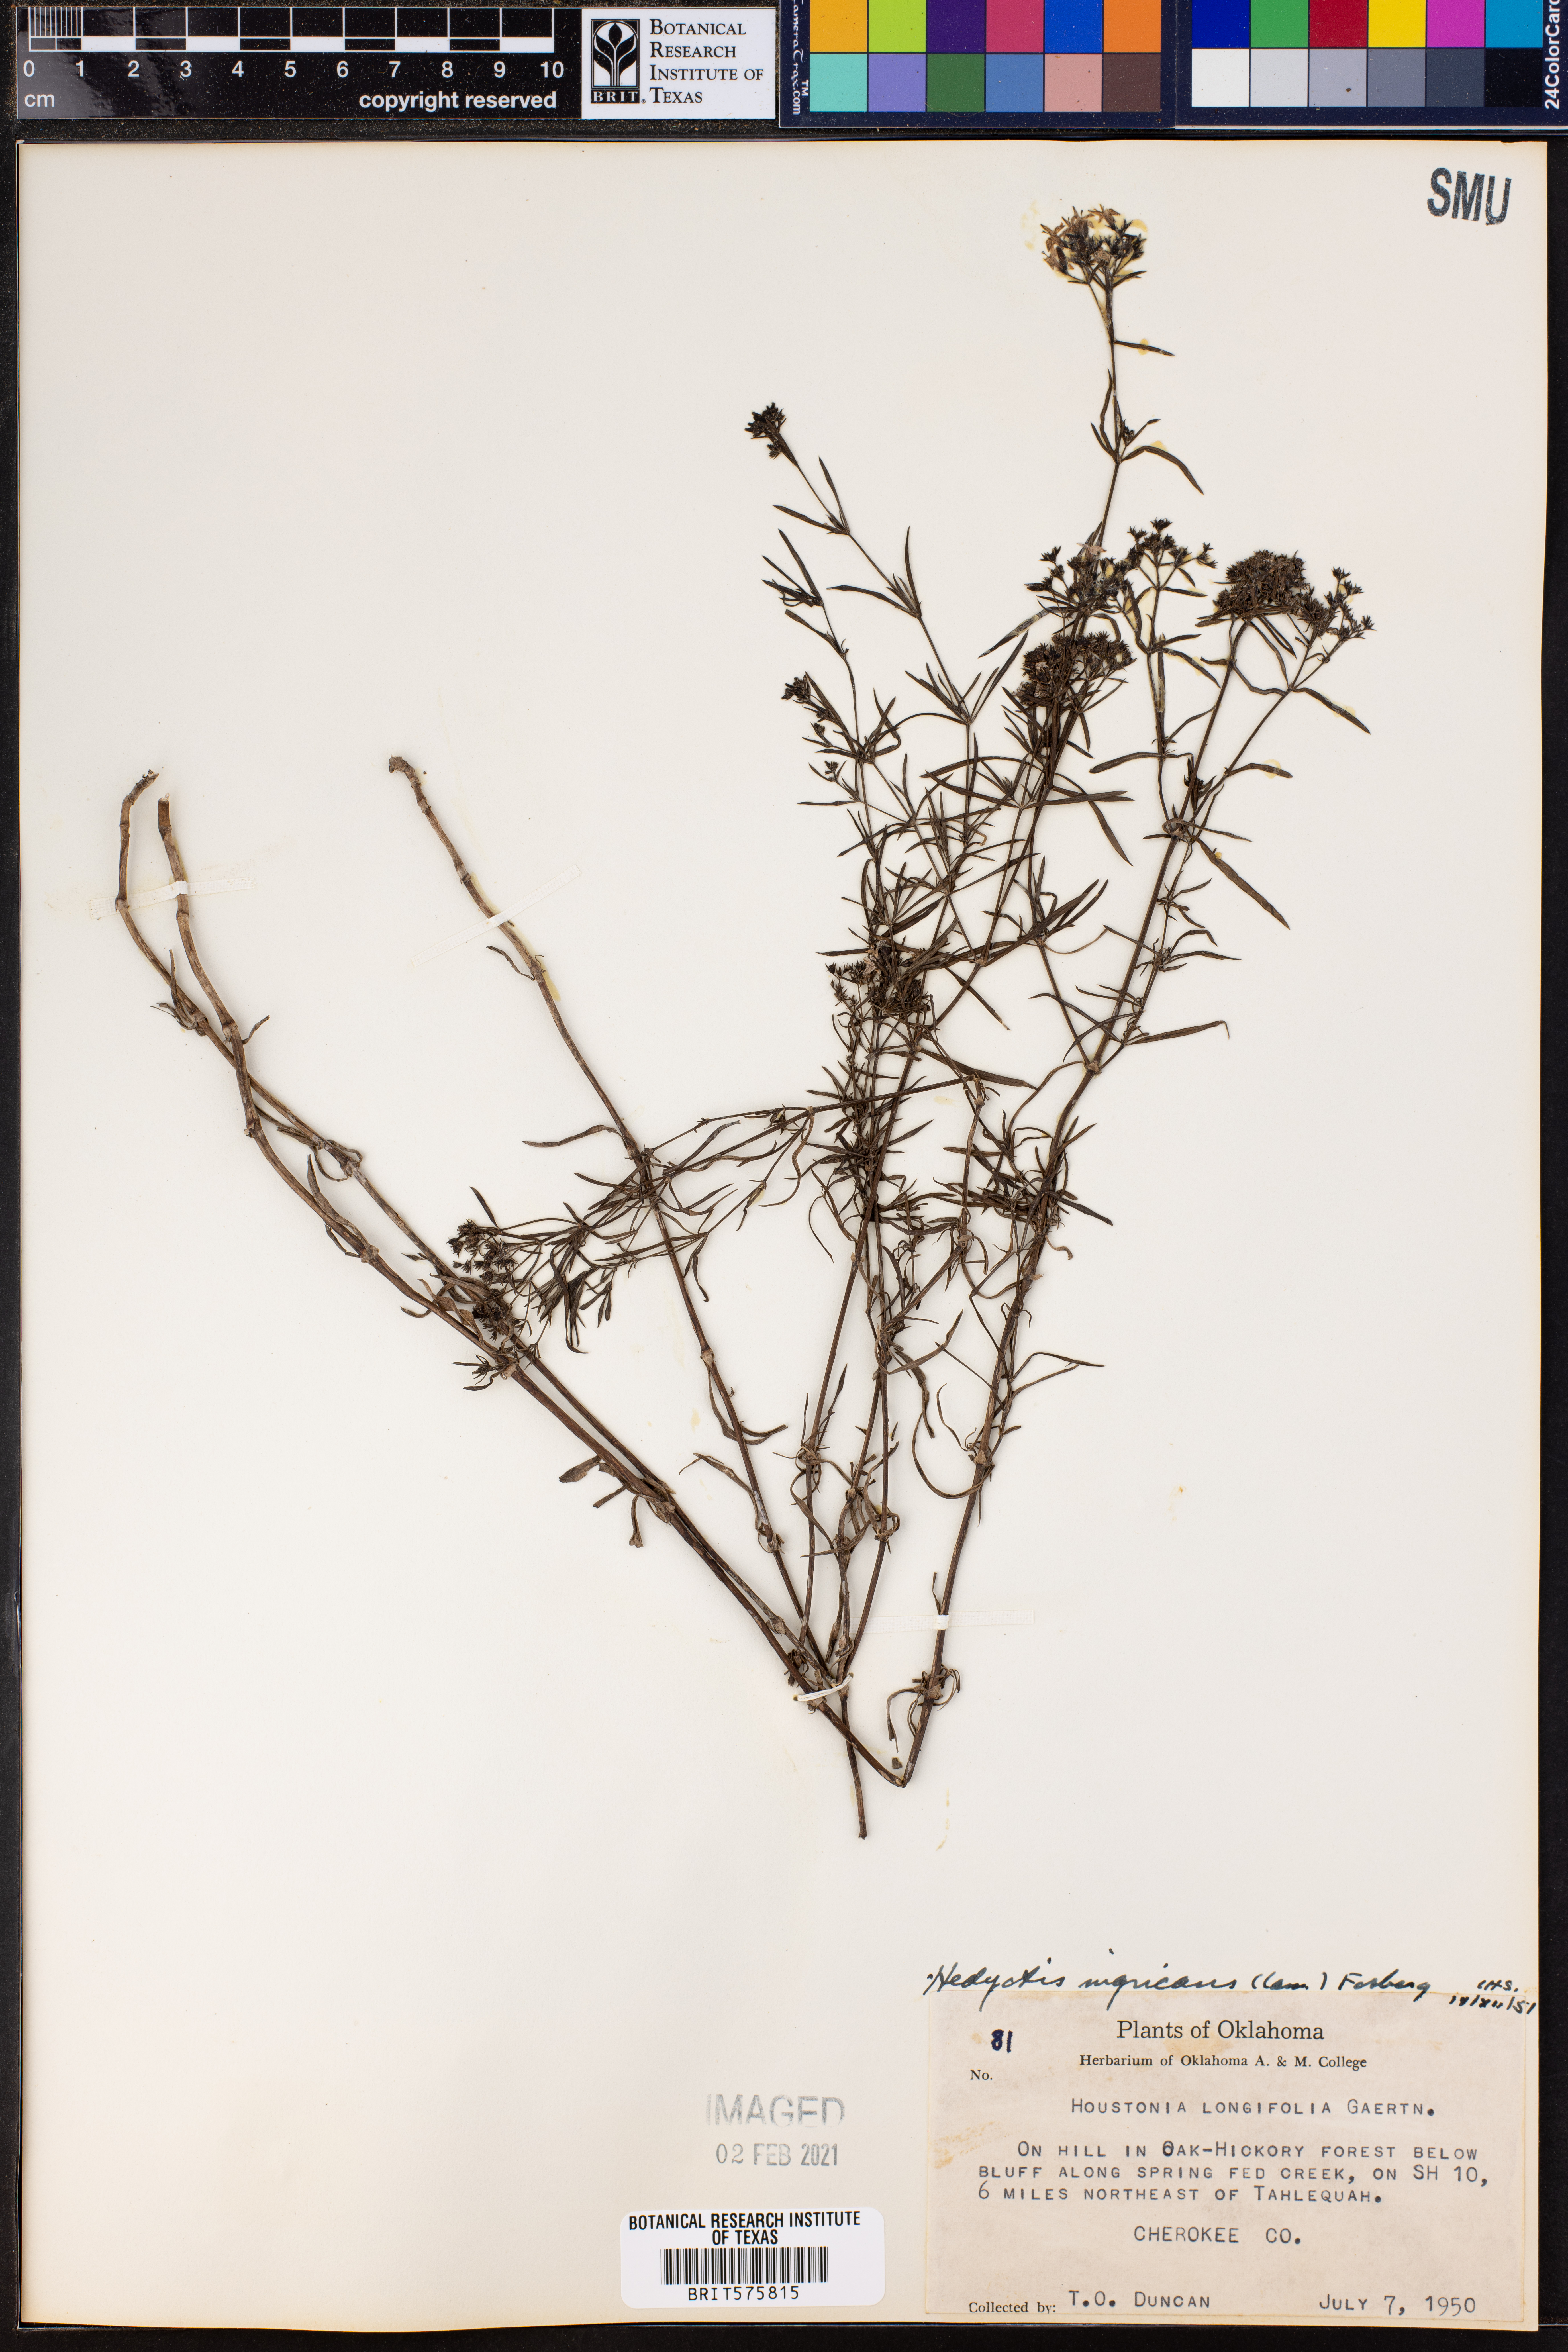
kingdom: Plantae
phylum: Tracheophyta
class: Magnoliopsida
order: Gentianales
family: Rubiaceae
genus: Stenaria
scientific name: Stenaria nigricans
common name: Diamondflowers
